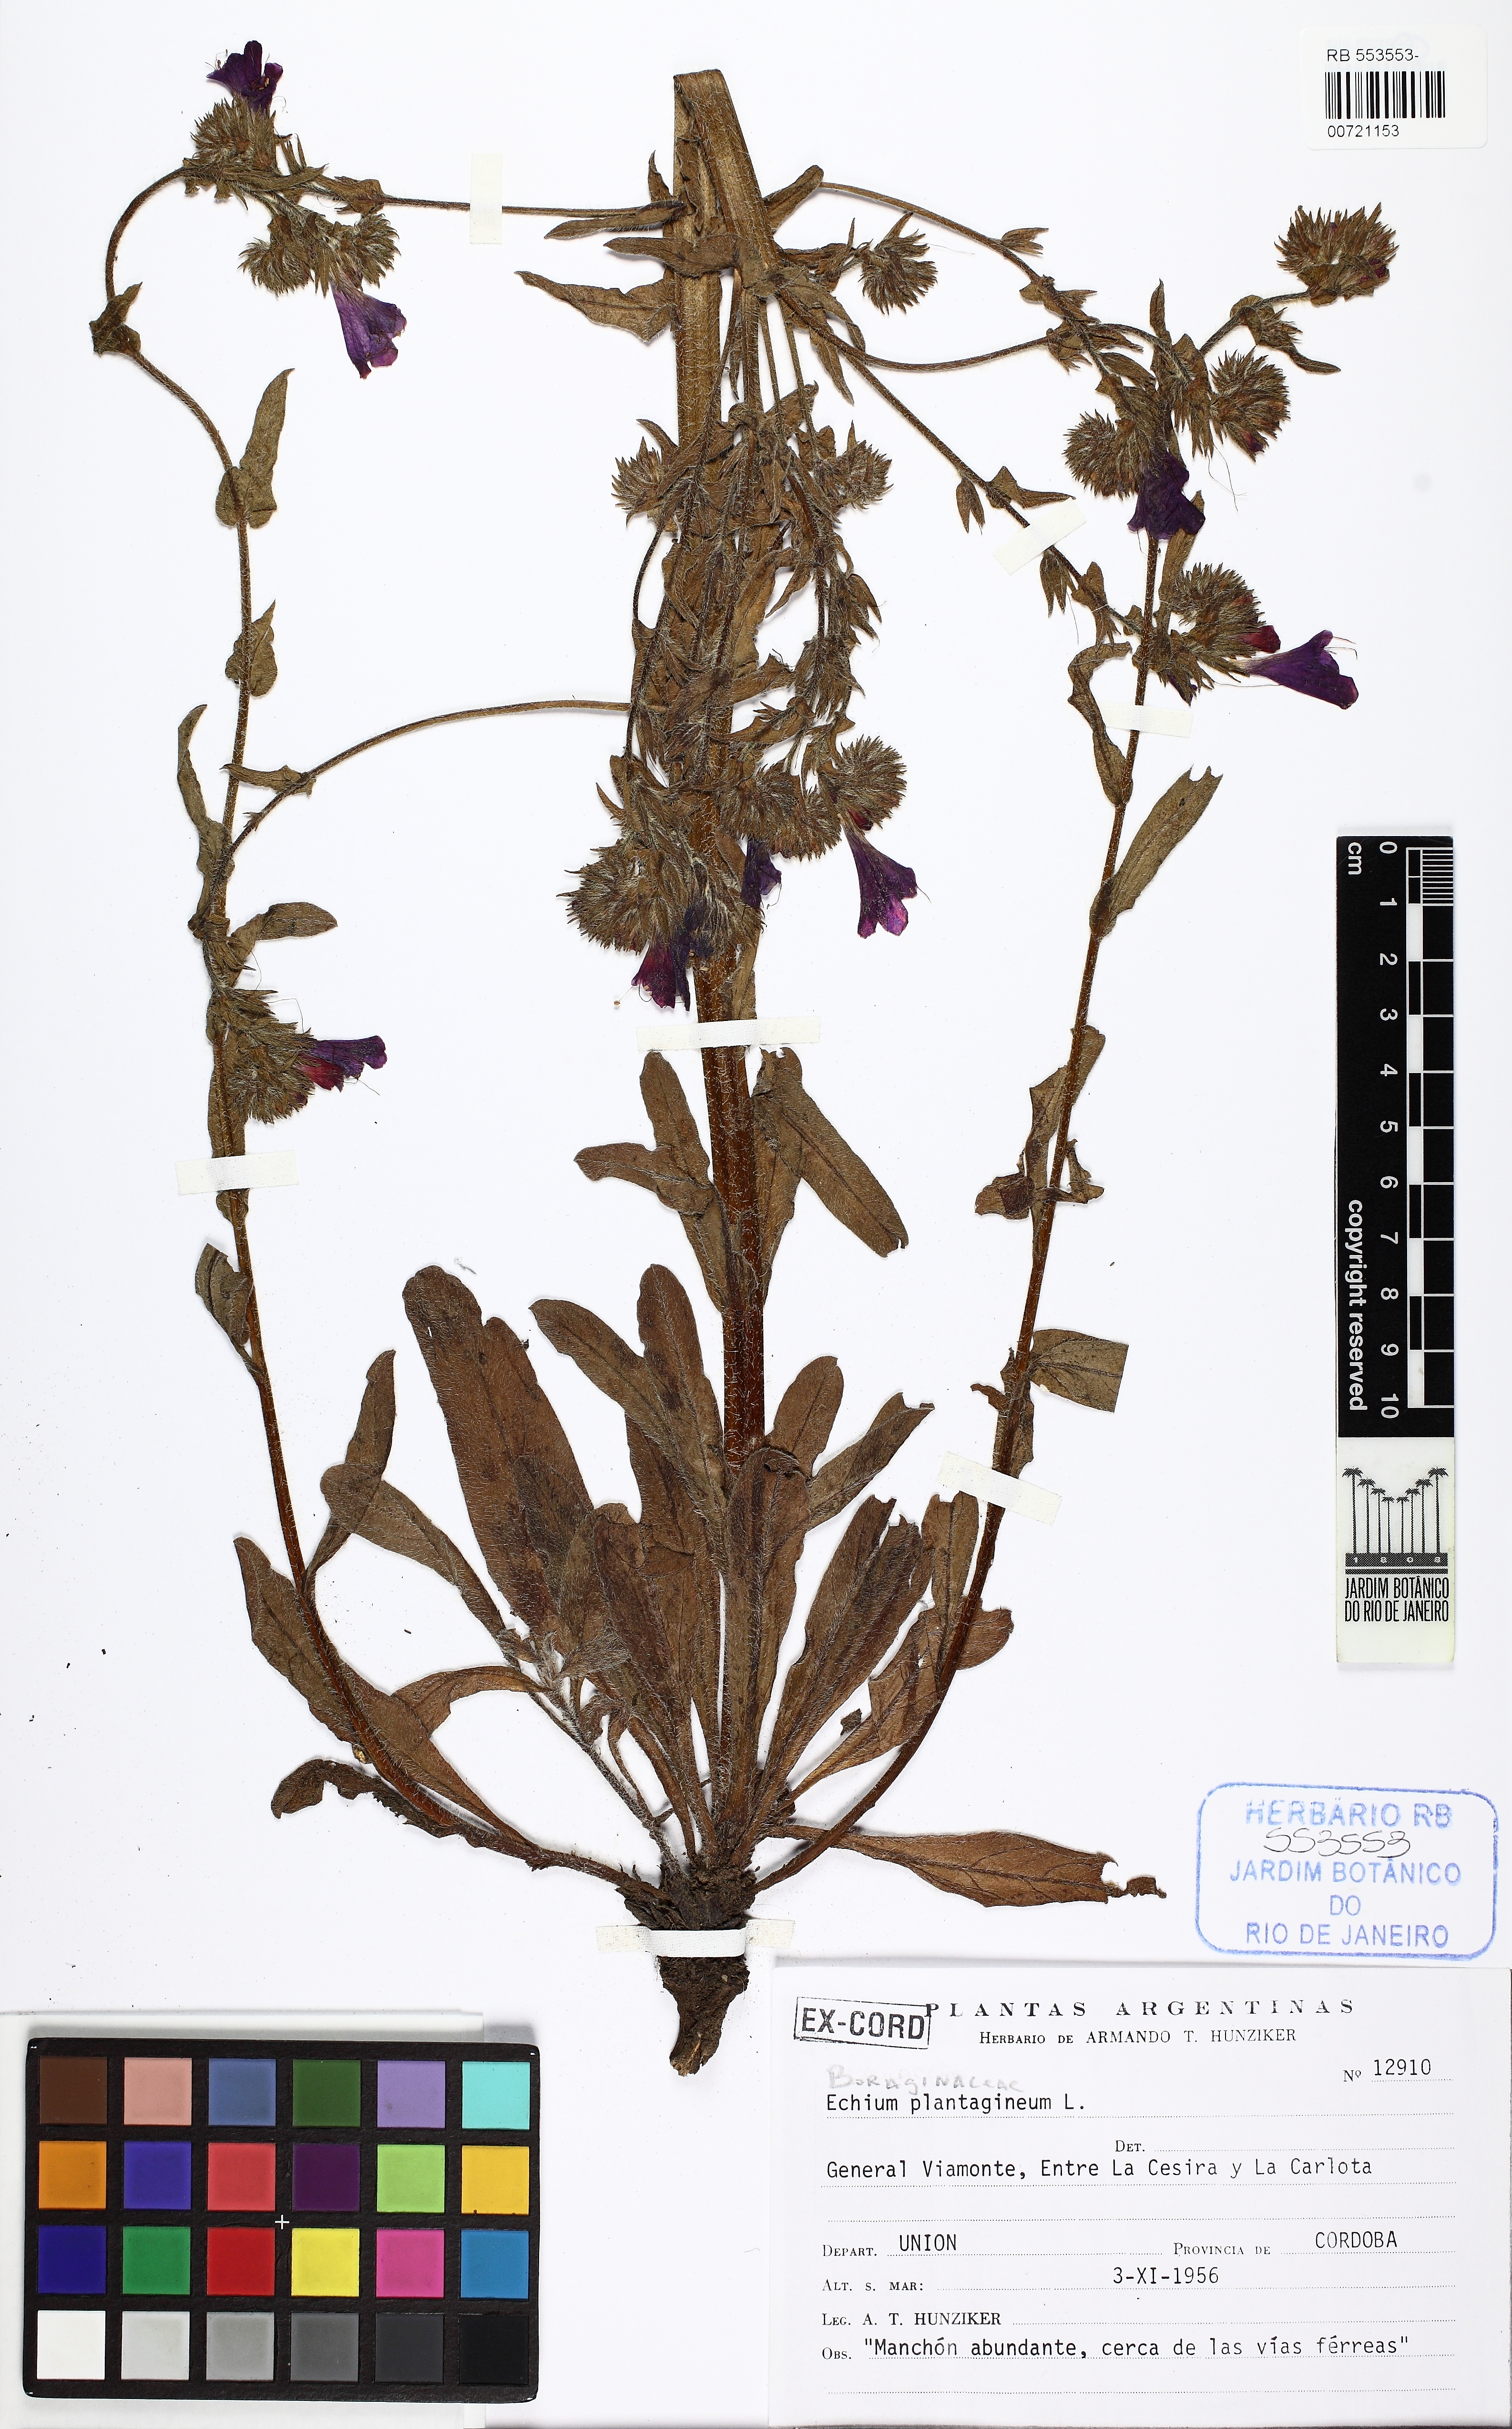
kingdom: Plantae
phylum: Tracheophyta
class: Magnoliopsida
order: Boraginales
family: Boraginaceae
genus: Echium
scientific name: Echium plantagineum
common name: Purple viper's-bugloss
